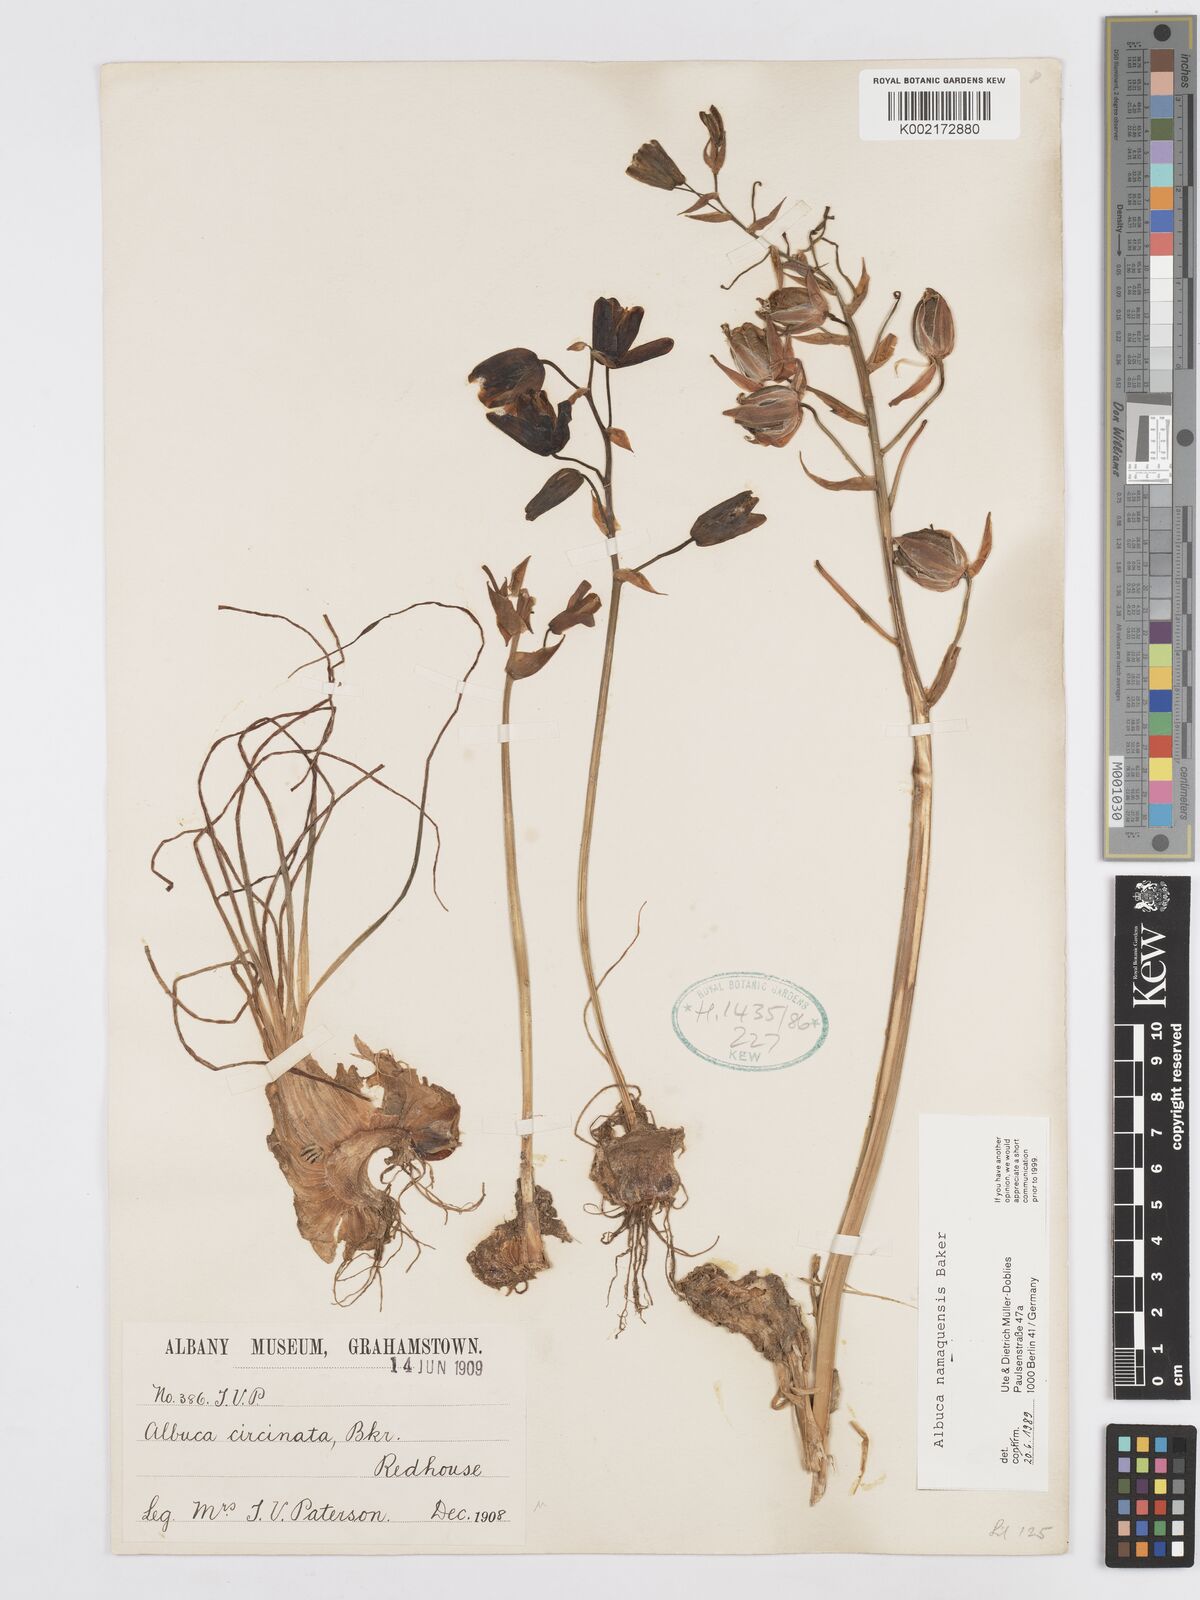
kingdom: Plantae
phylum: Tracheophyta
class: Liliopsida
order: Asparagales
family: Asparagaceae
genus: Albuca
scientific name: Albuca namaquensis
